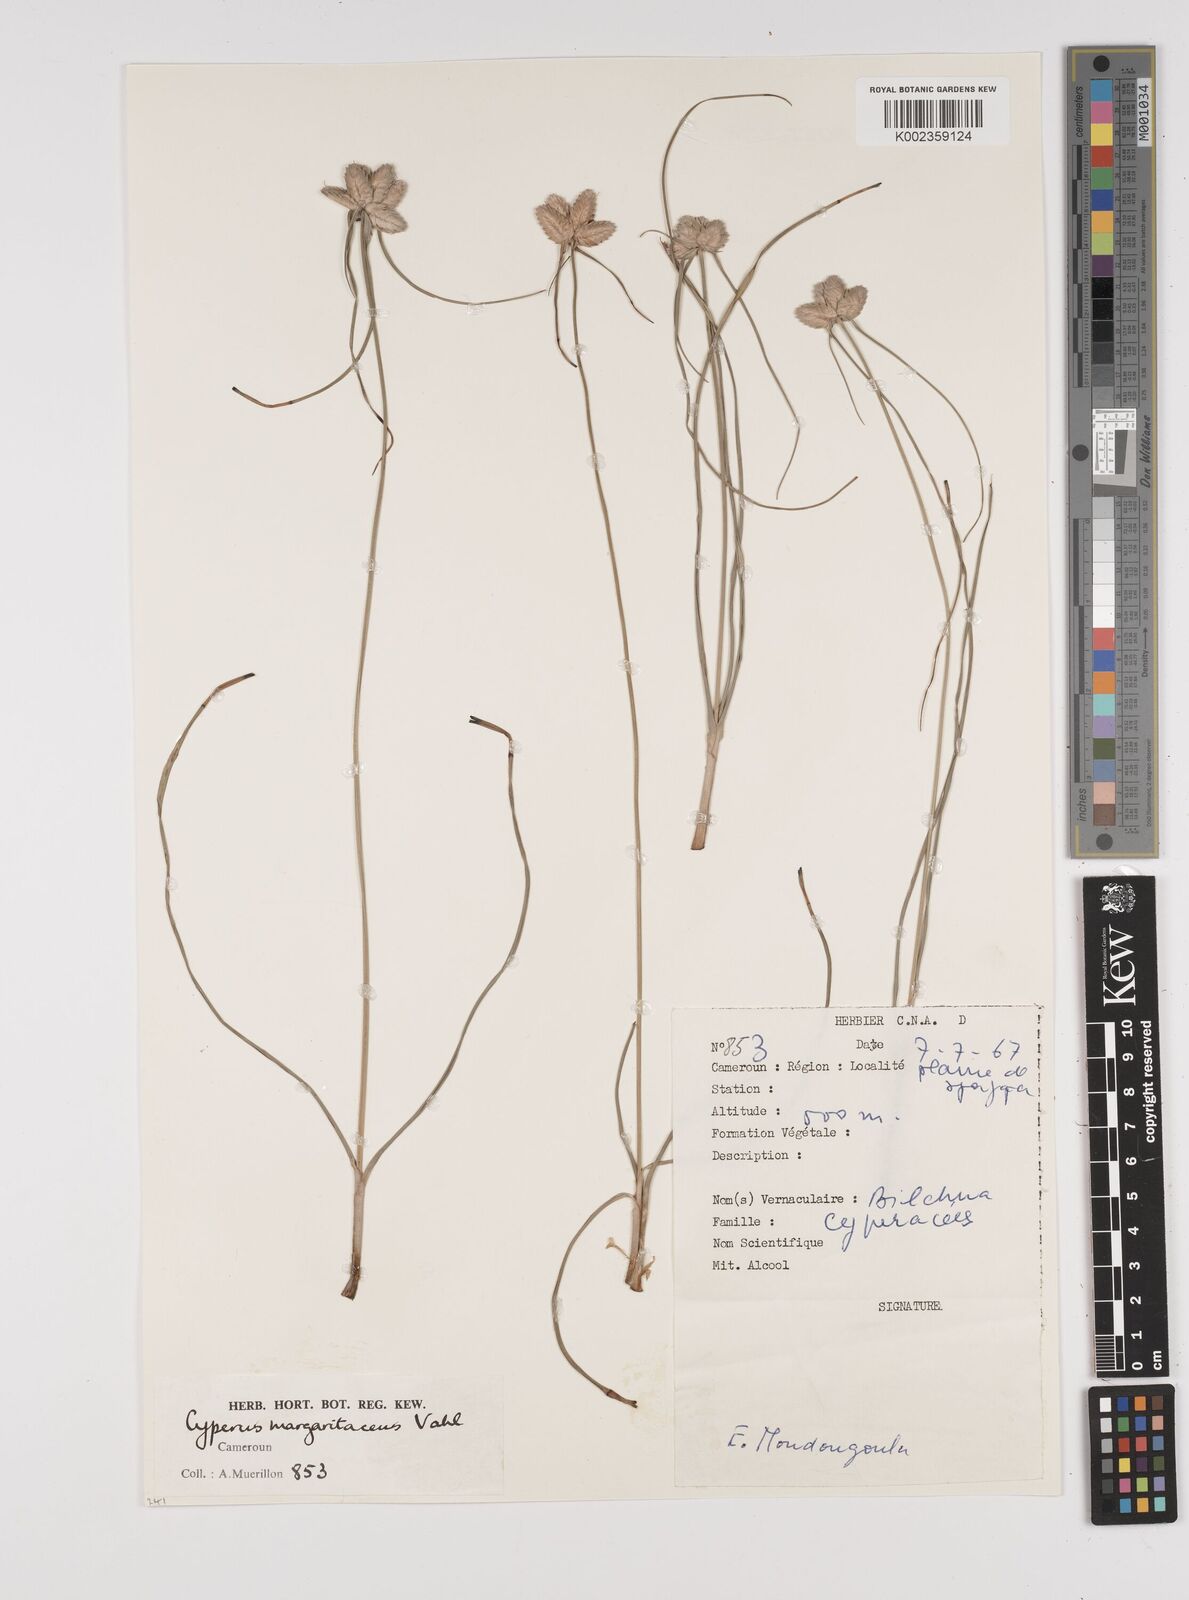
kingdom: Plantae
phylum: Tracheophyta
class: Liliopsida
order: Poales
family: Cyperaceae
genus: Cyperus
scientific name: Cyperus difformis
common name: Variable flatsedge
